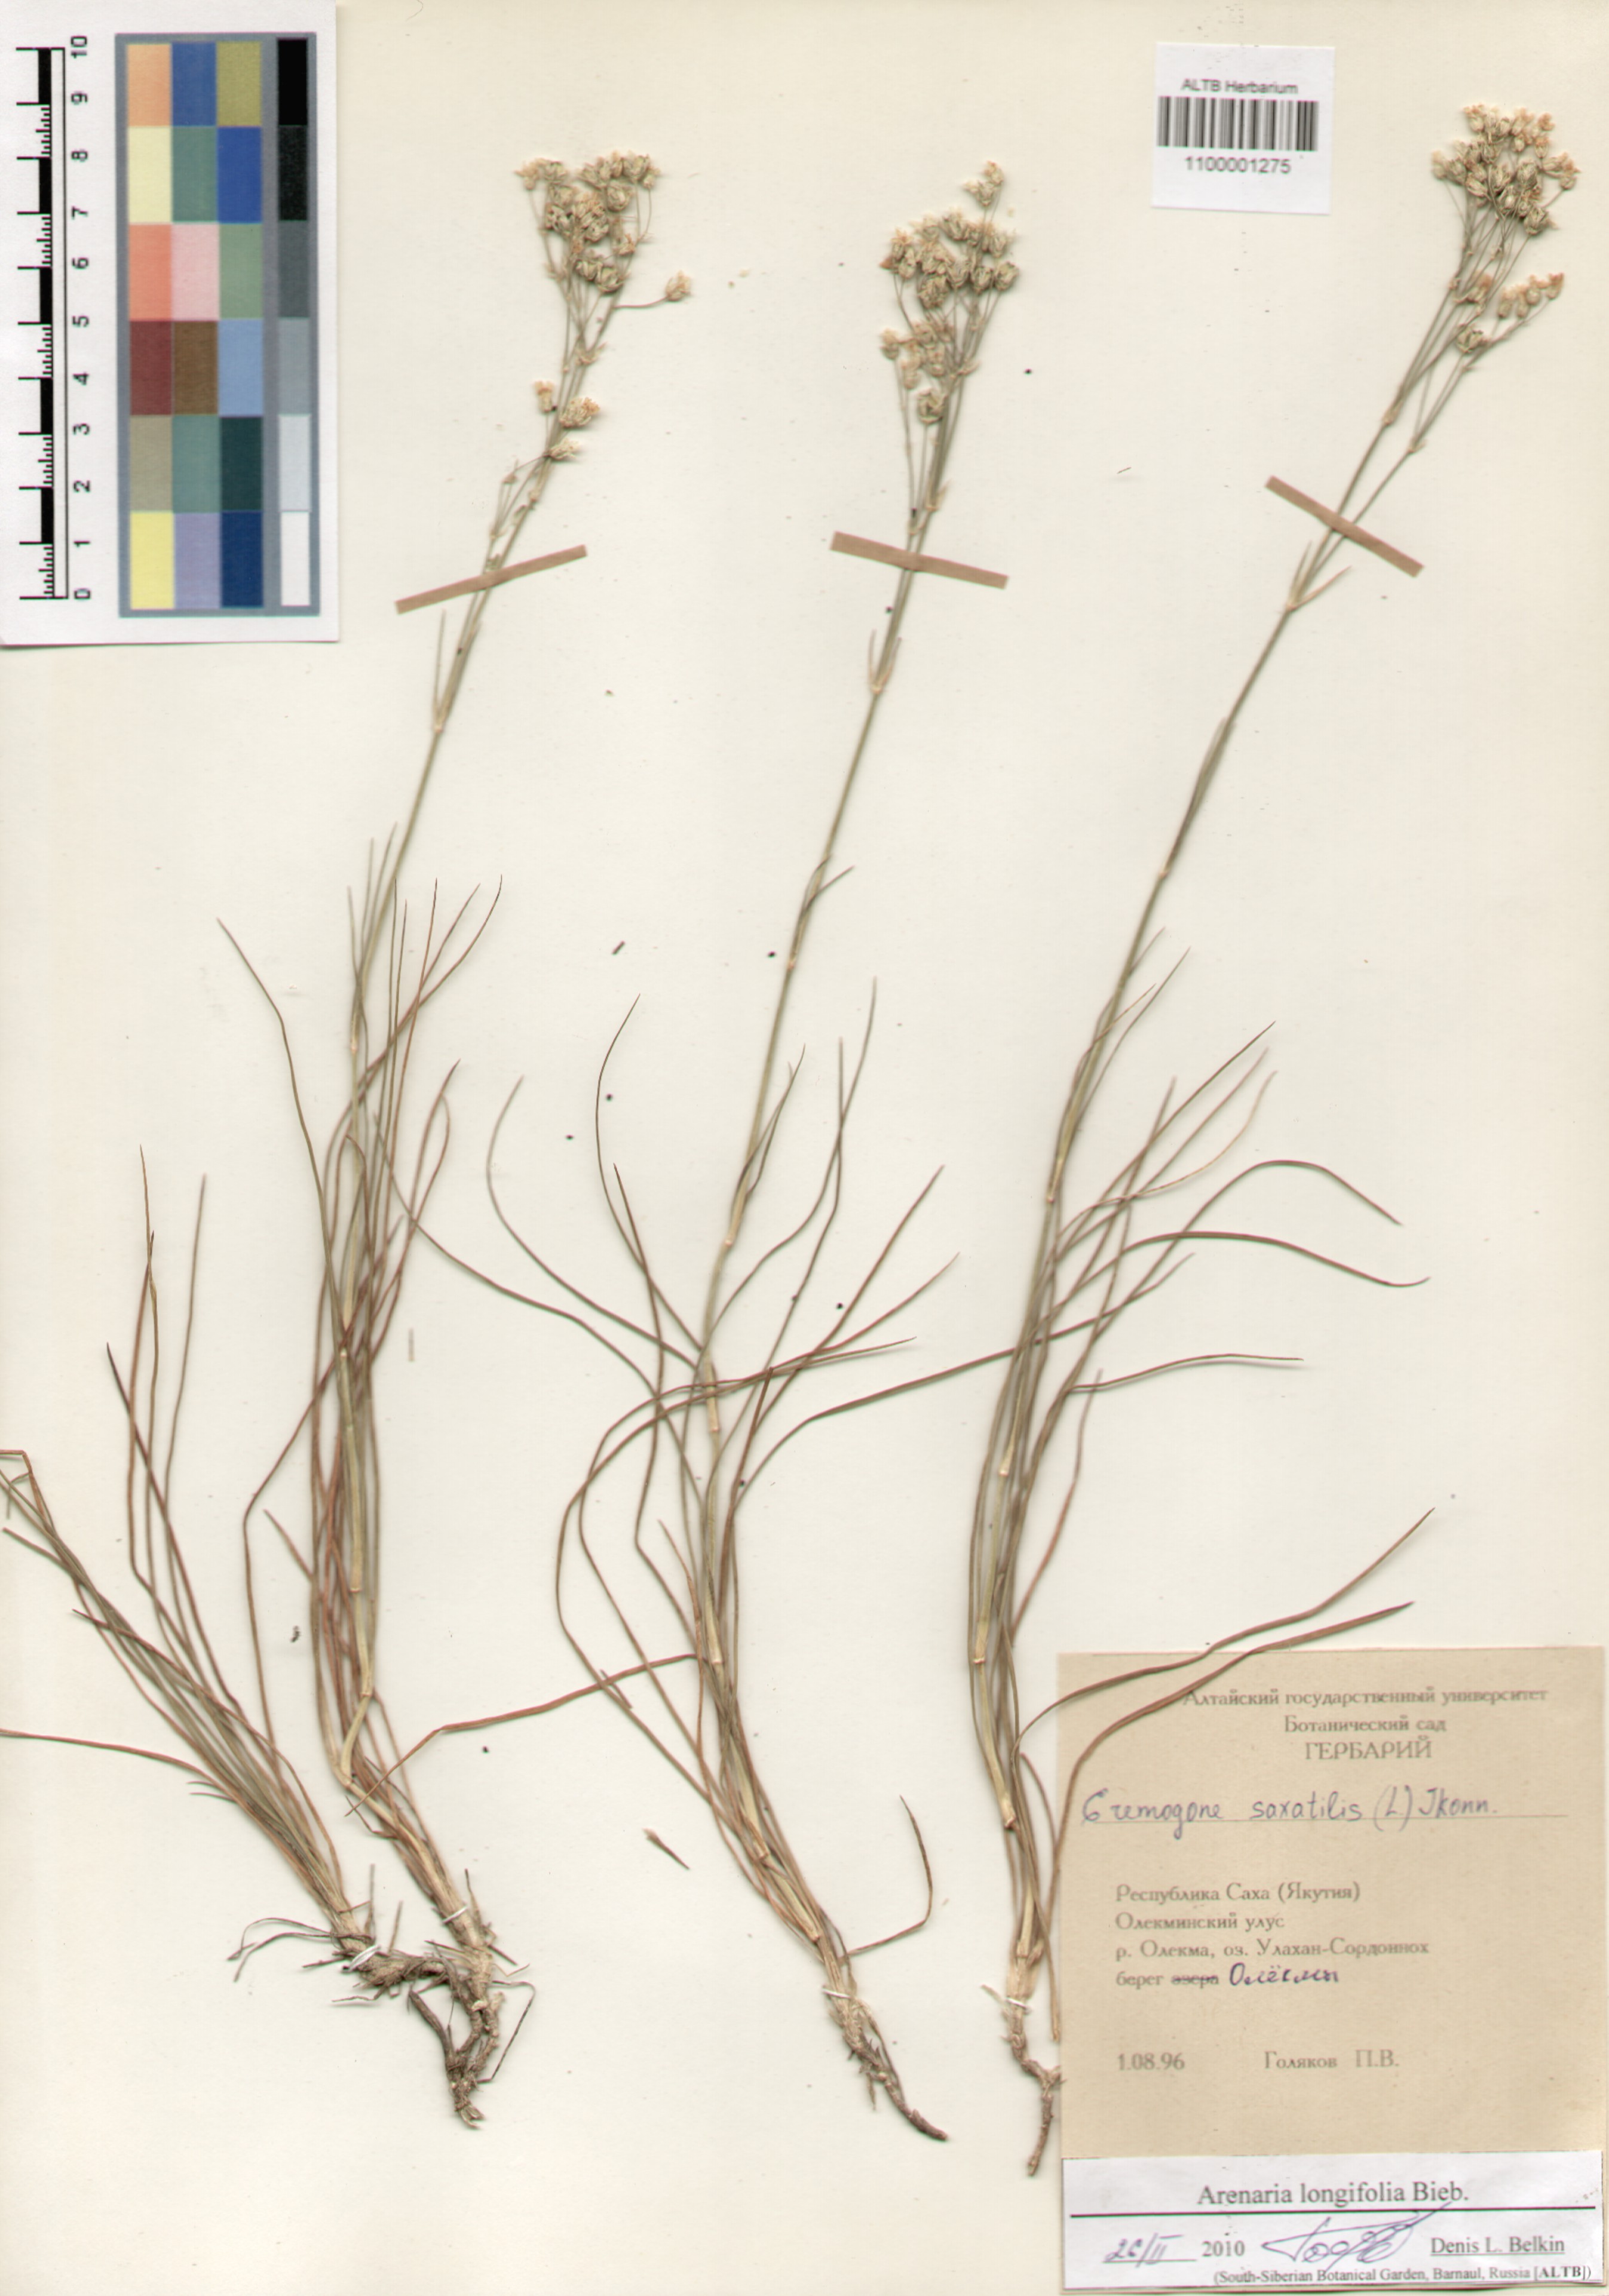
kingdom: Plantae
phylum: Tracheophyta
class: Magnoliopsida
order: Caryophyllales
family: Caryophyllaceae
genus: Eremogone
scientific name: Eremogone longifolia
